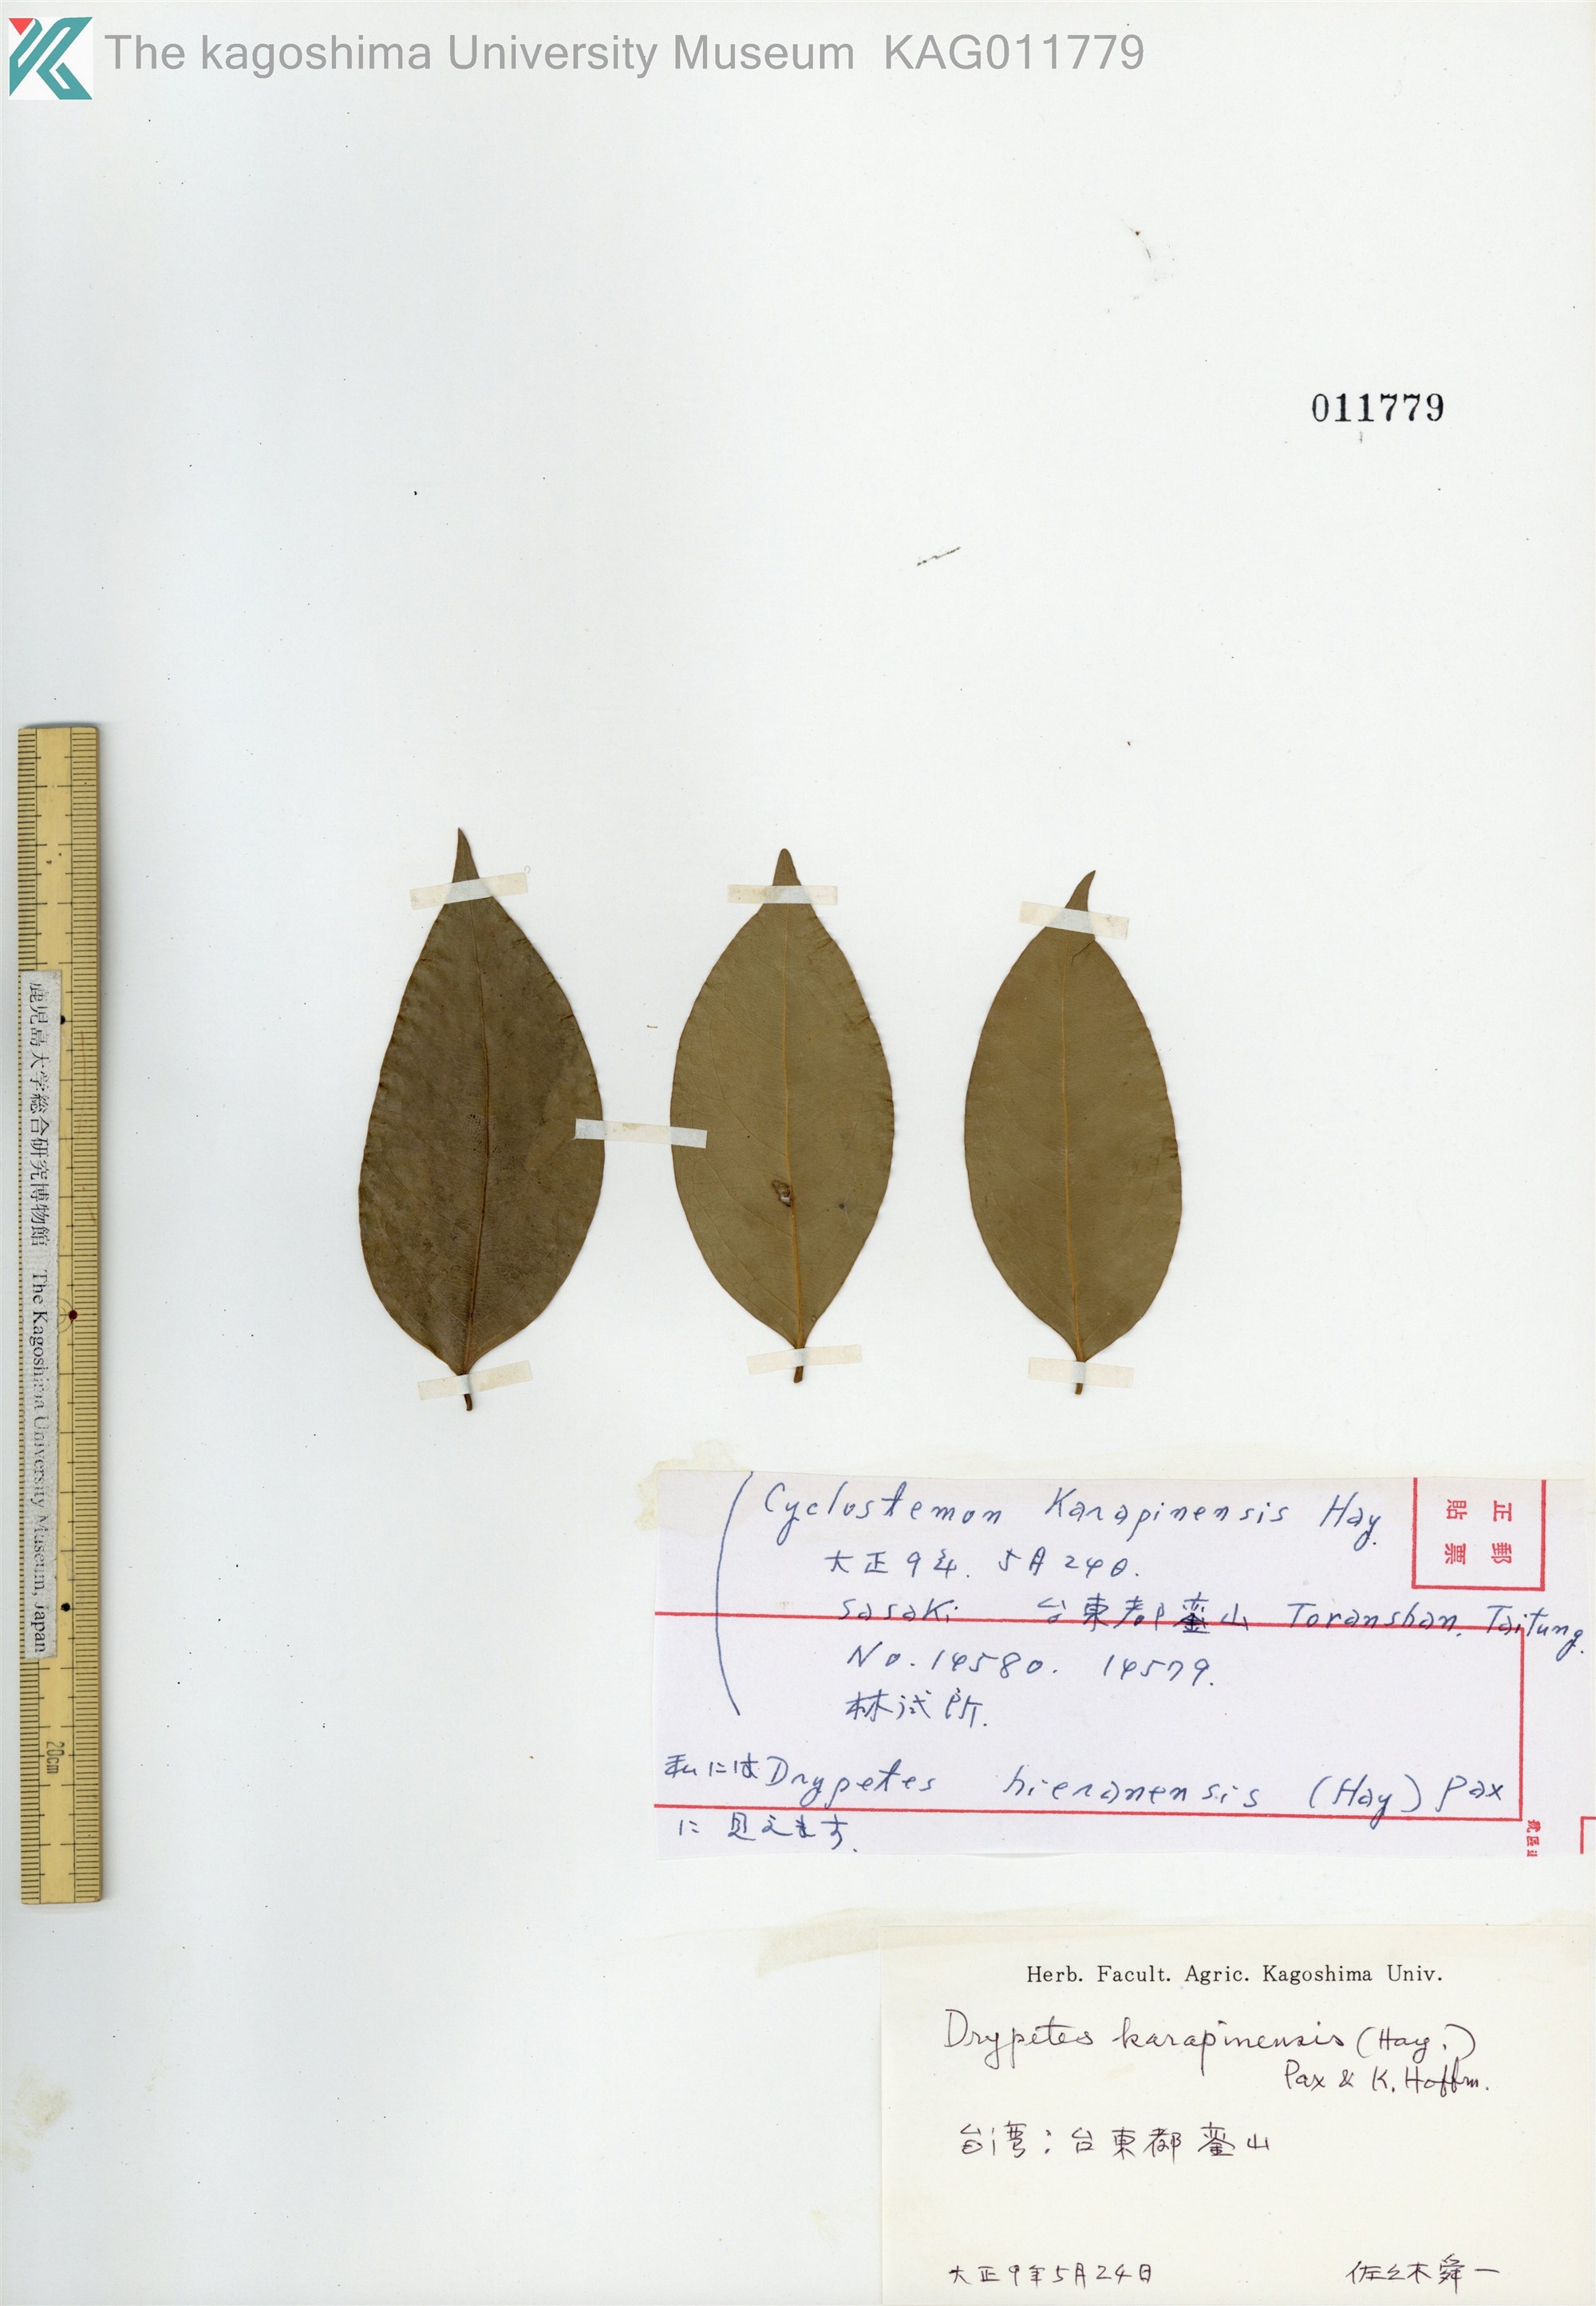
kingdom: Plantae
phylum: Tracheophyta
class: Magnoliopsida
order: Malpighiales
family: Putranjivaceae
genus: Drypetes
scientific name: Drypetes indica
